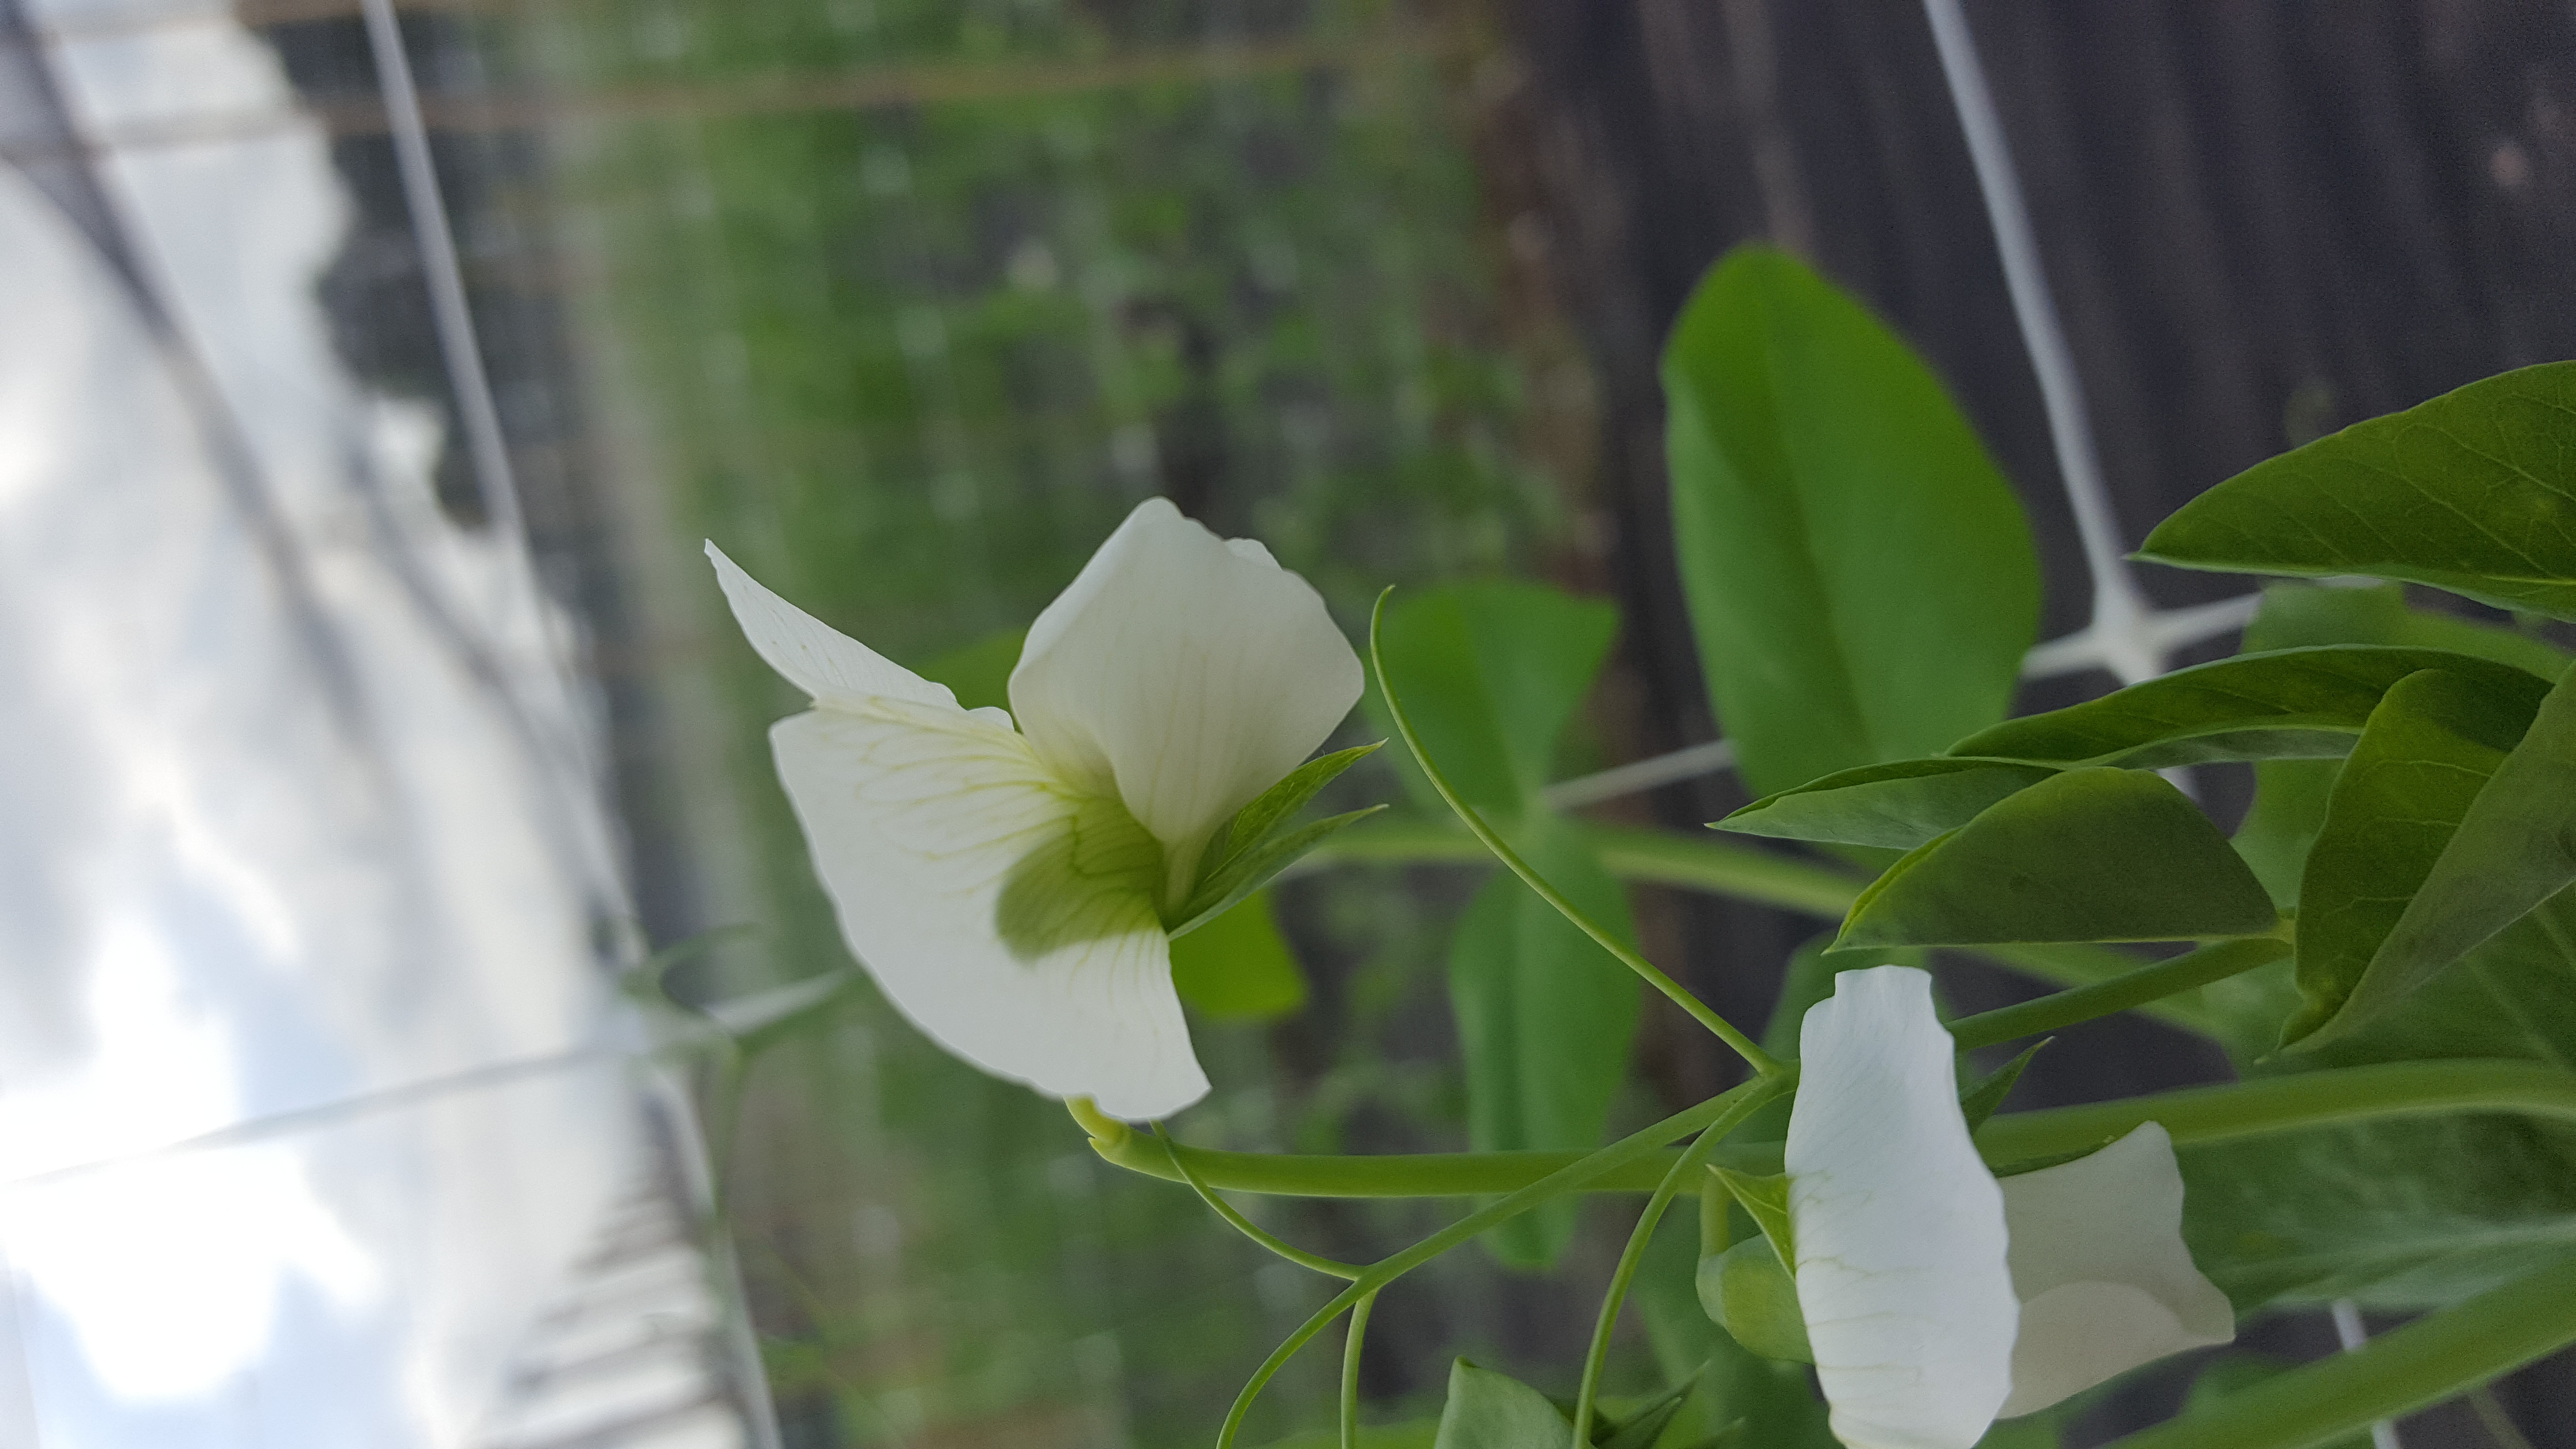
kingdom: Plantae
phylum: Tracheophyta
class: Magnoliopsida
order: Fabales
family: Fabaceae
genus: Lathyrus
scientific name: Lathyrus oleraceus
